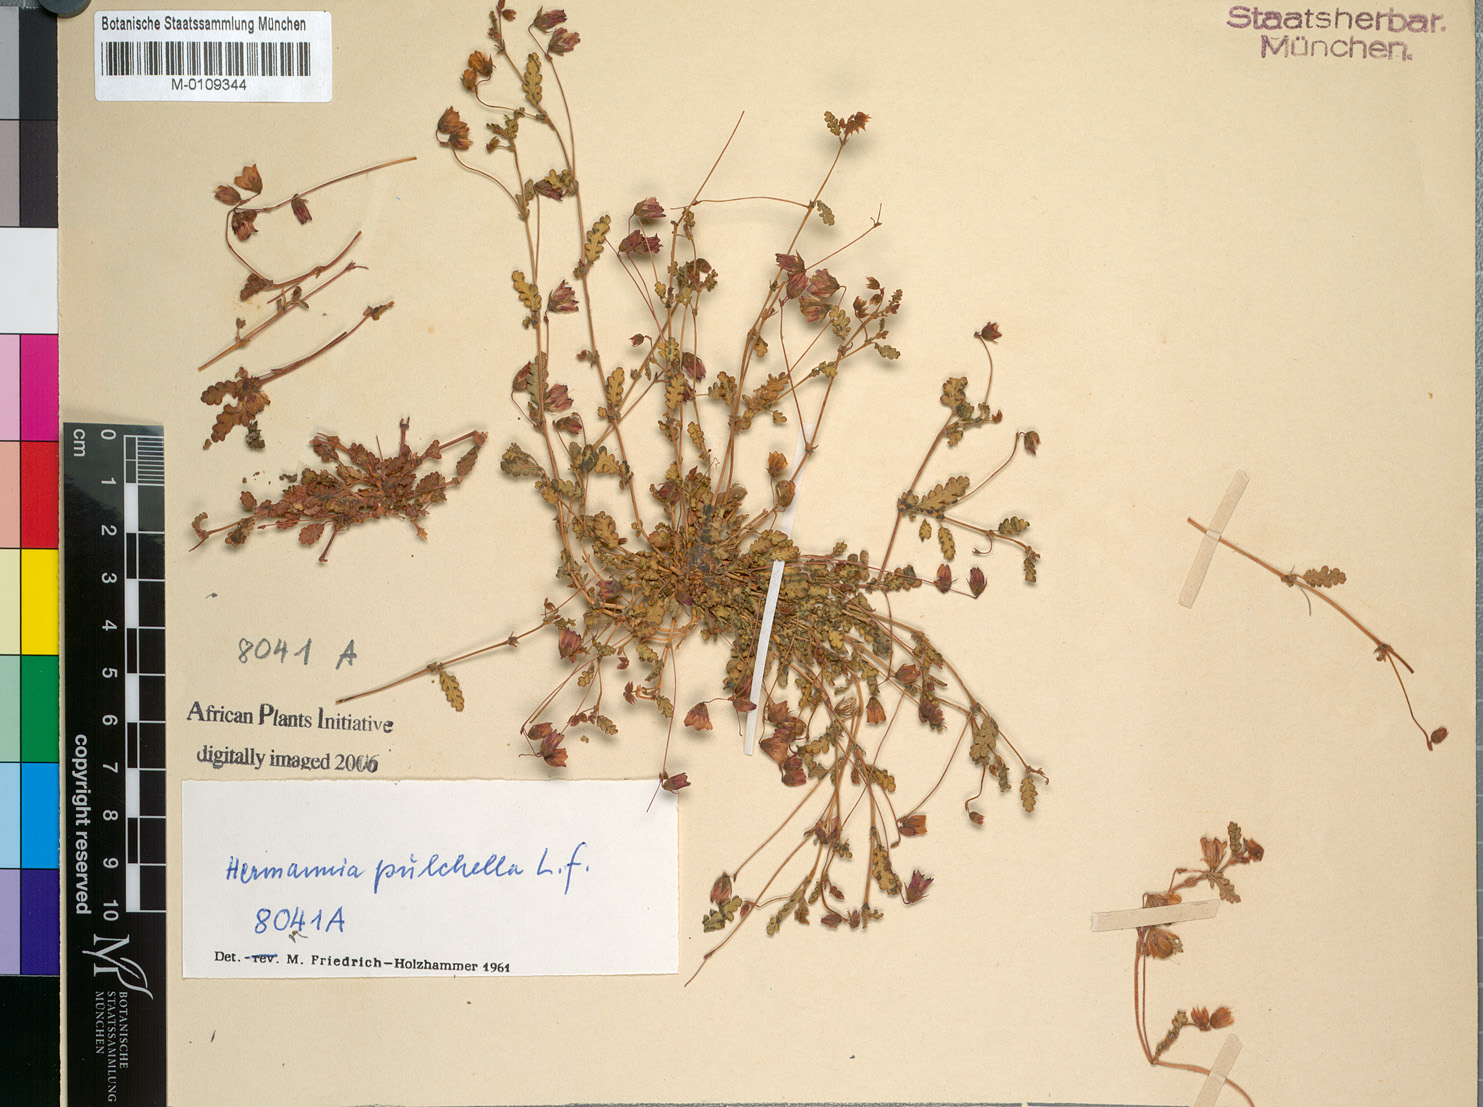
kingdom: Plantae
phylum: Tracheophyta
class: Magnoliopsida
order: Malvales
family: Malvaceae
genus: Hermannia
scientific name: Hermannia pulchella
